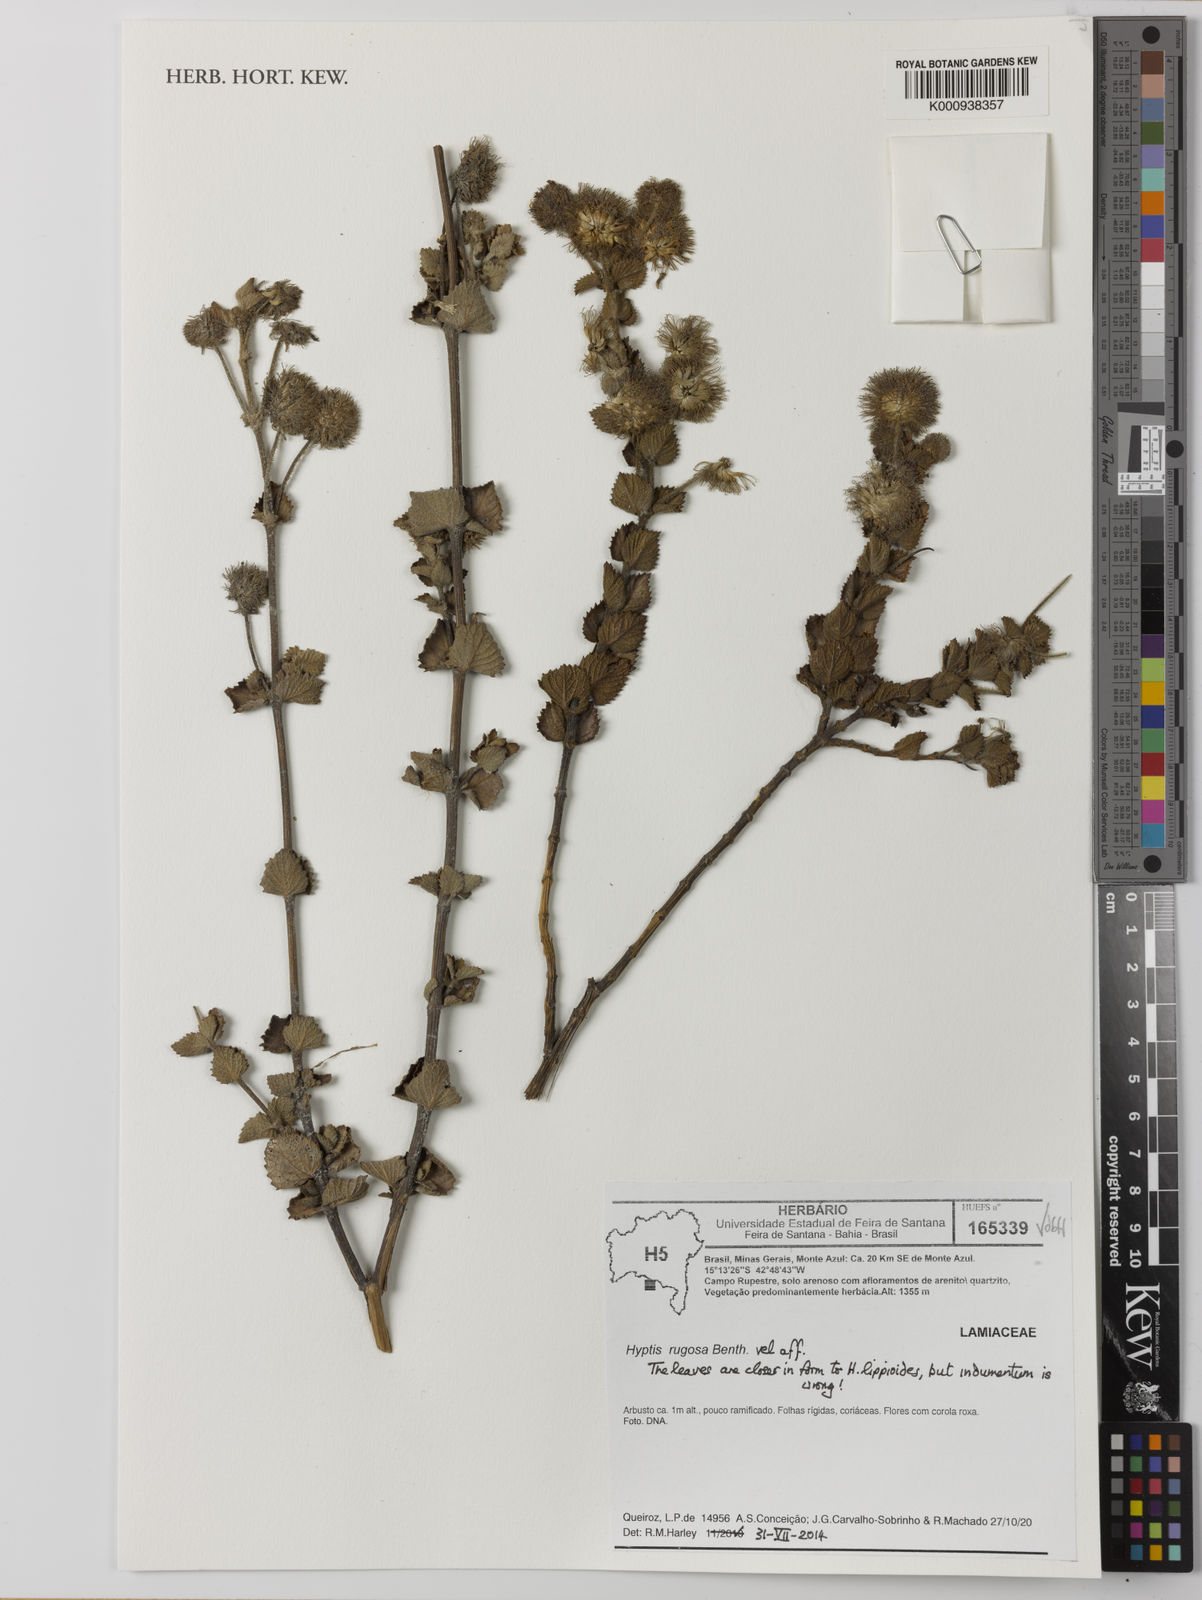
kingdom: Plantae
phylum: Tracheophyta
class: Magnoliopsida
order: Lamiales
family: Lamiaceae
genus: Hyptis
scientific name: Hyptis
